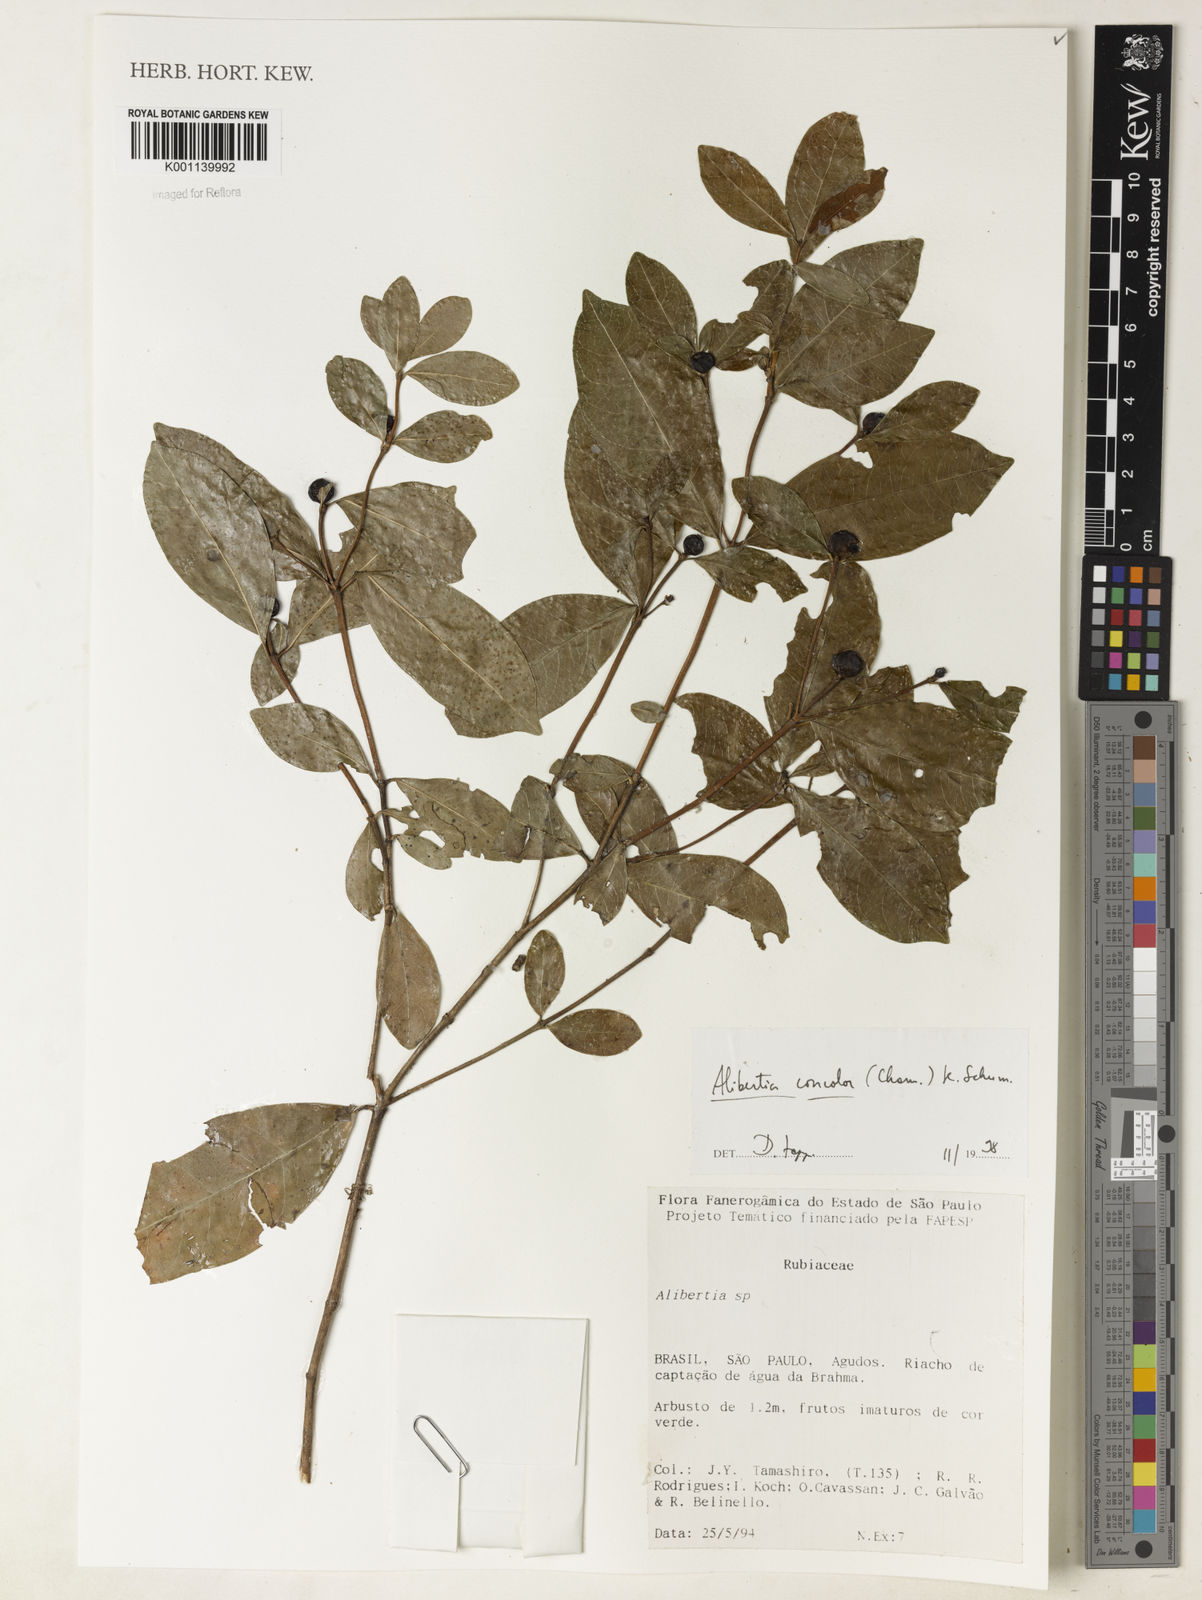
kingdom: Plantae
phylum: Tracheophyta
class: Magnoliopsida
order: Gentianales
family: Rubiaceae
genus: Cordiera
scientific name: Cordiera concolor
